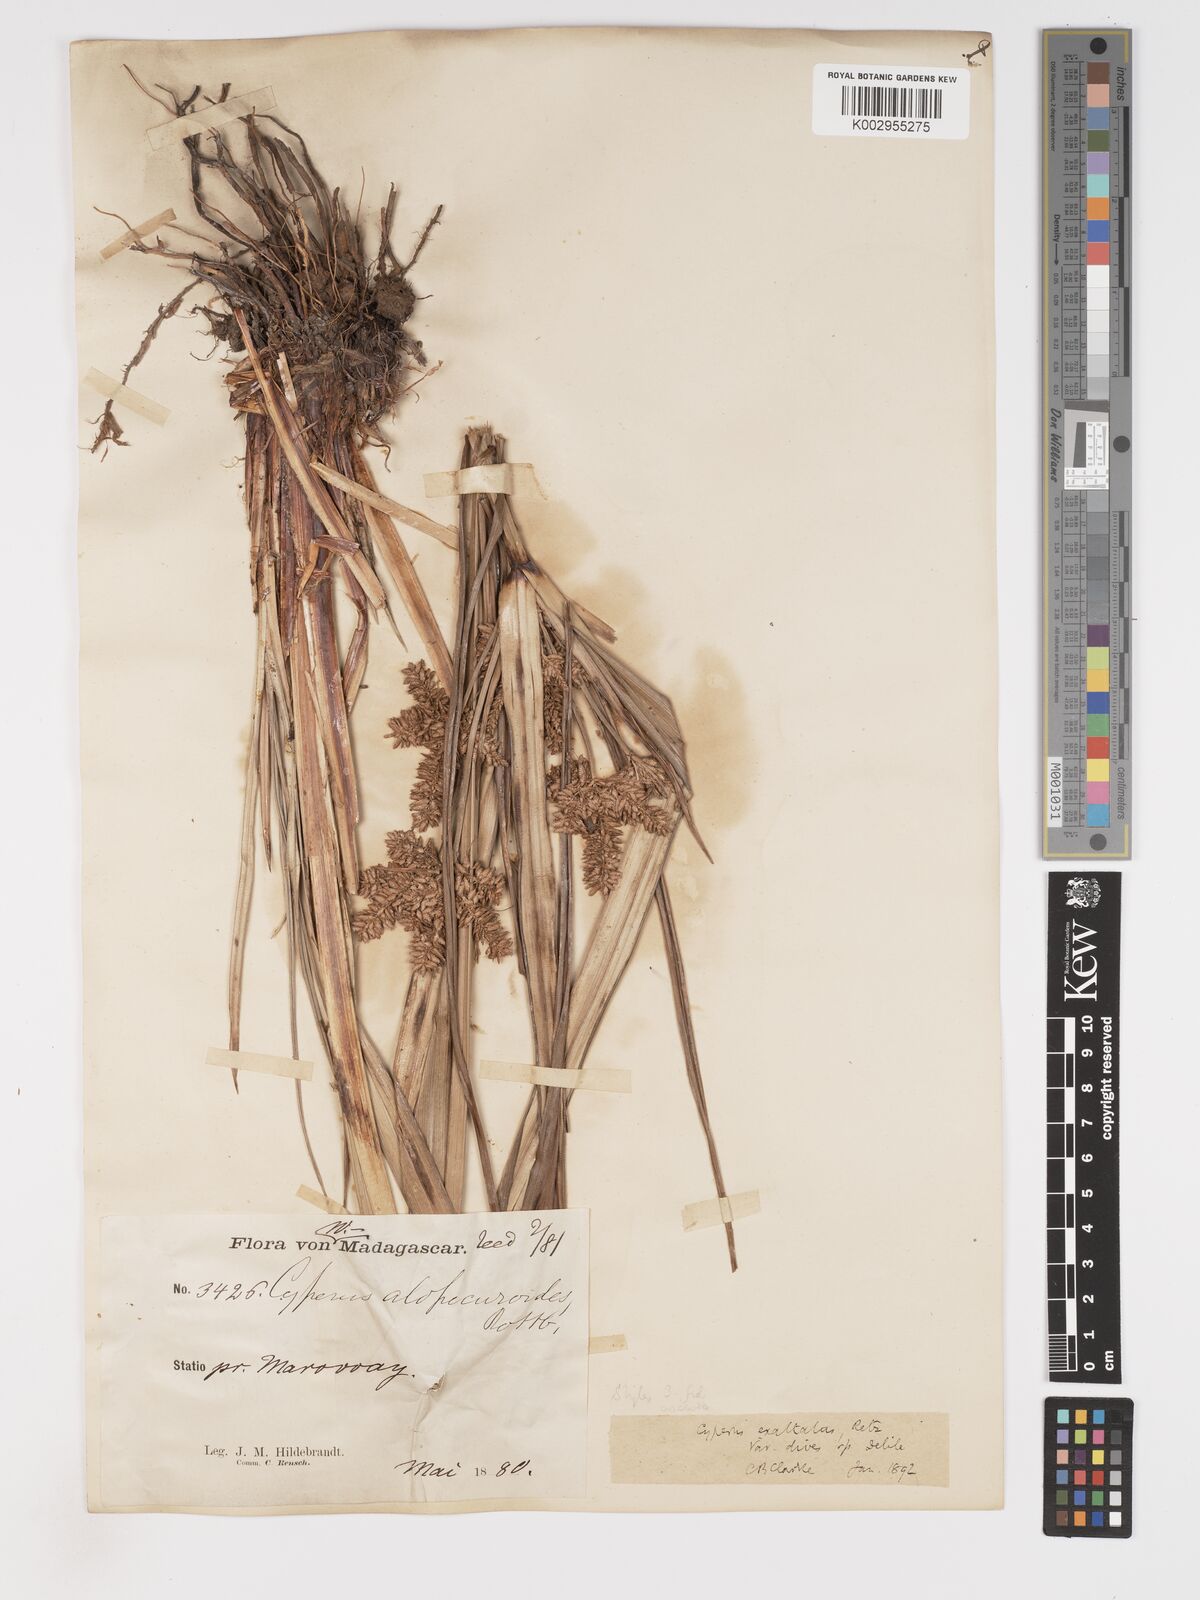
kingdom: Plantae
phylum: Tracheophyta
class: Liliopsida
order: Poales
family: Cyperaceae
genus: Cyperus
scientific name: Cyperus dives
